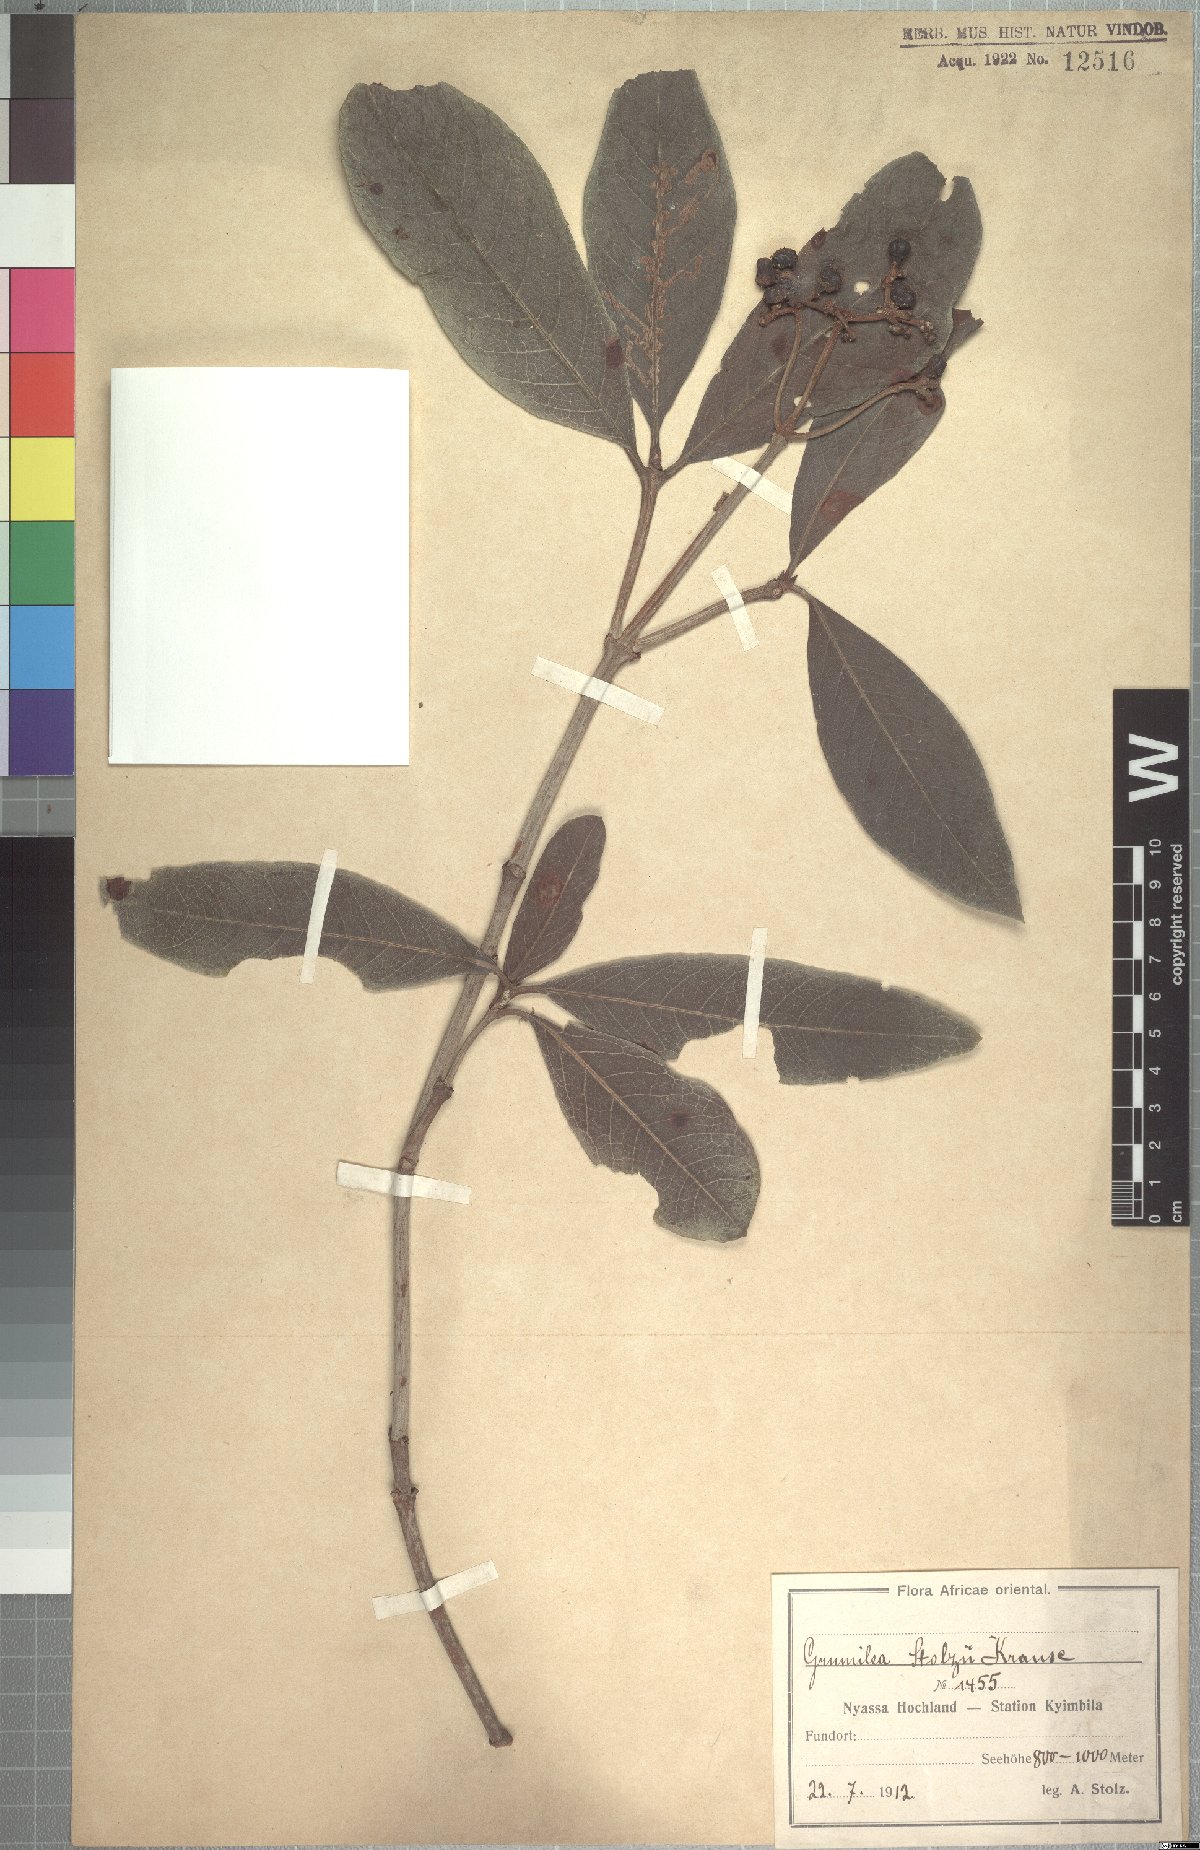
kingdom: Plantae
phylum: Tracheophyta
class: Magnoliopsida
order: Gentianales
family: Rubiaceae
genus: Psychotria
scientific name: Psychotria eminiana
